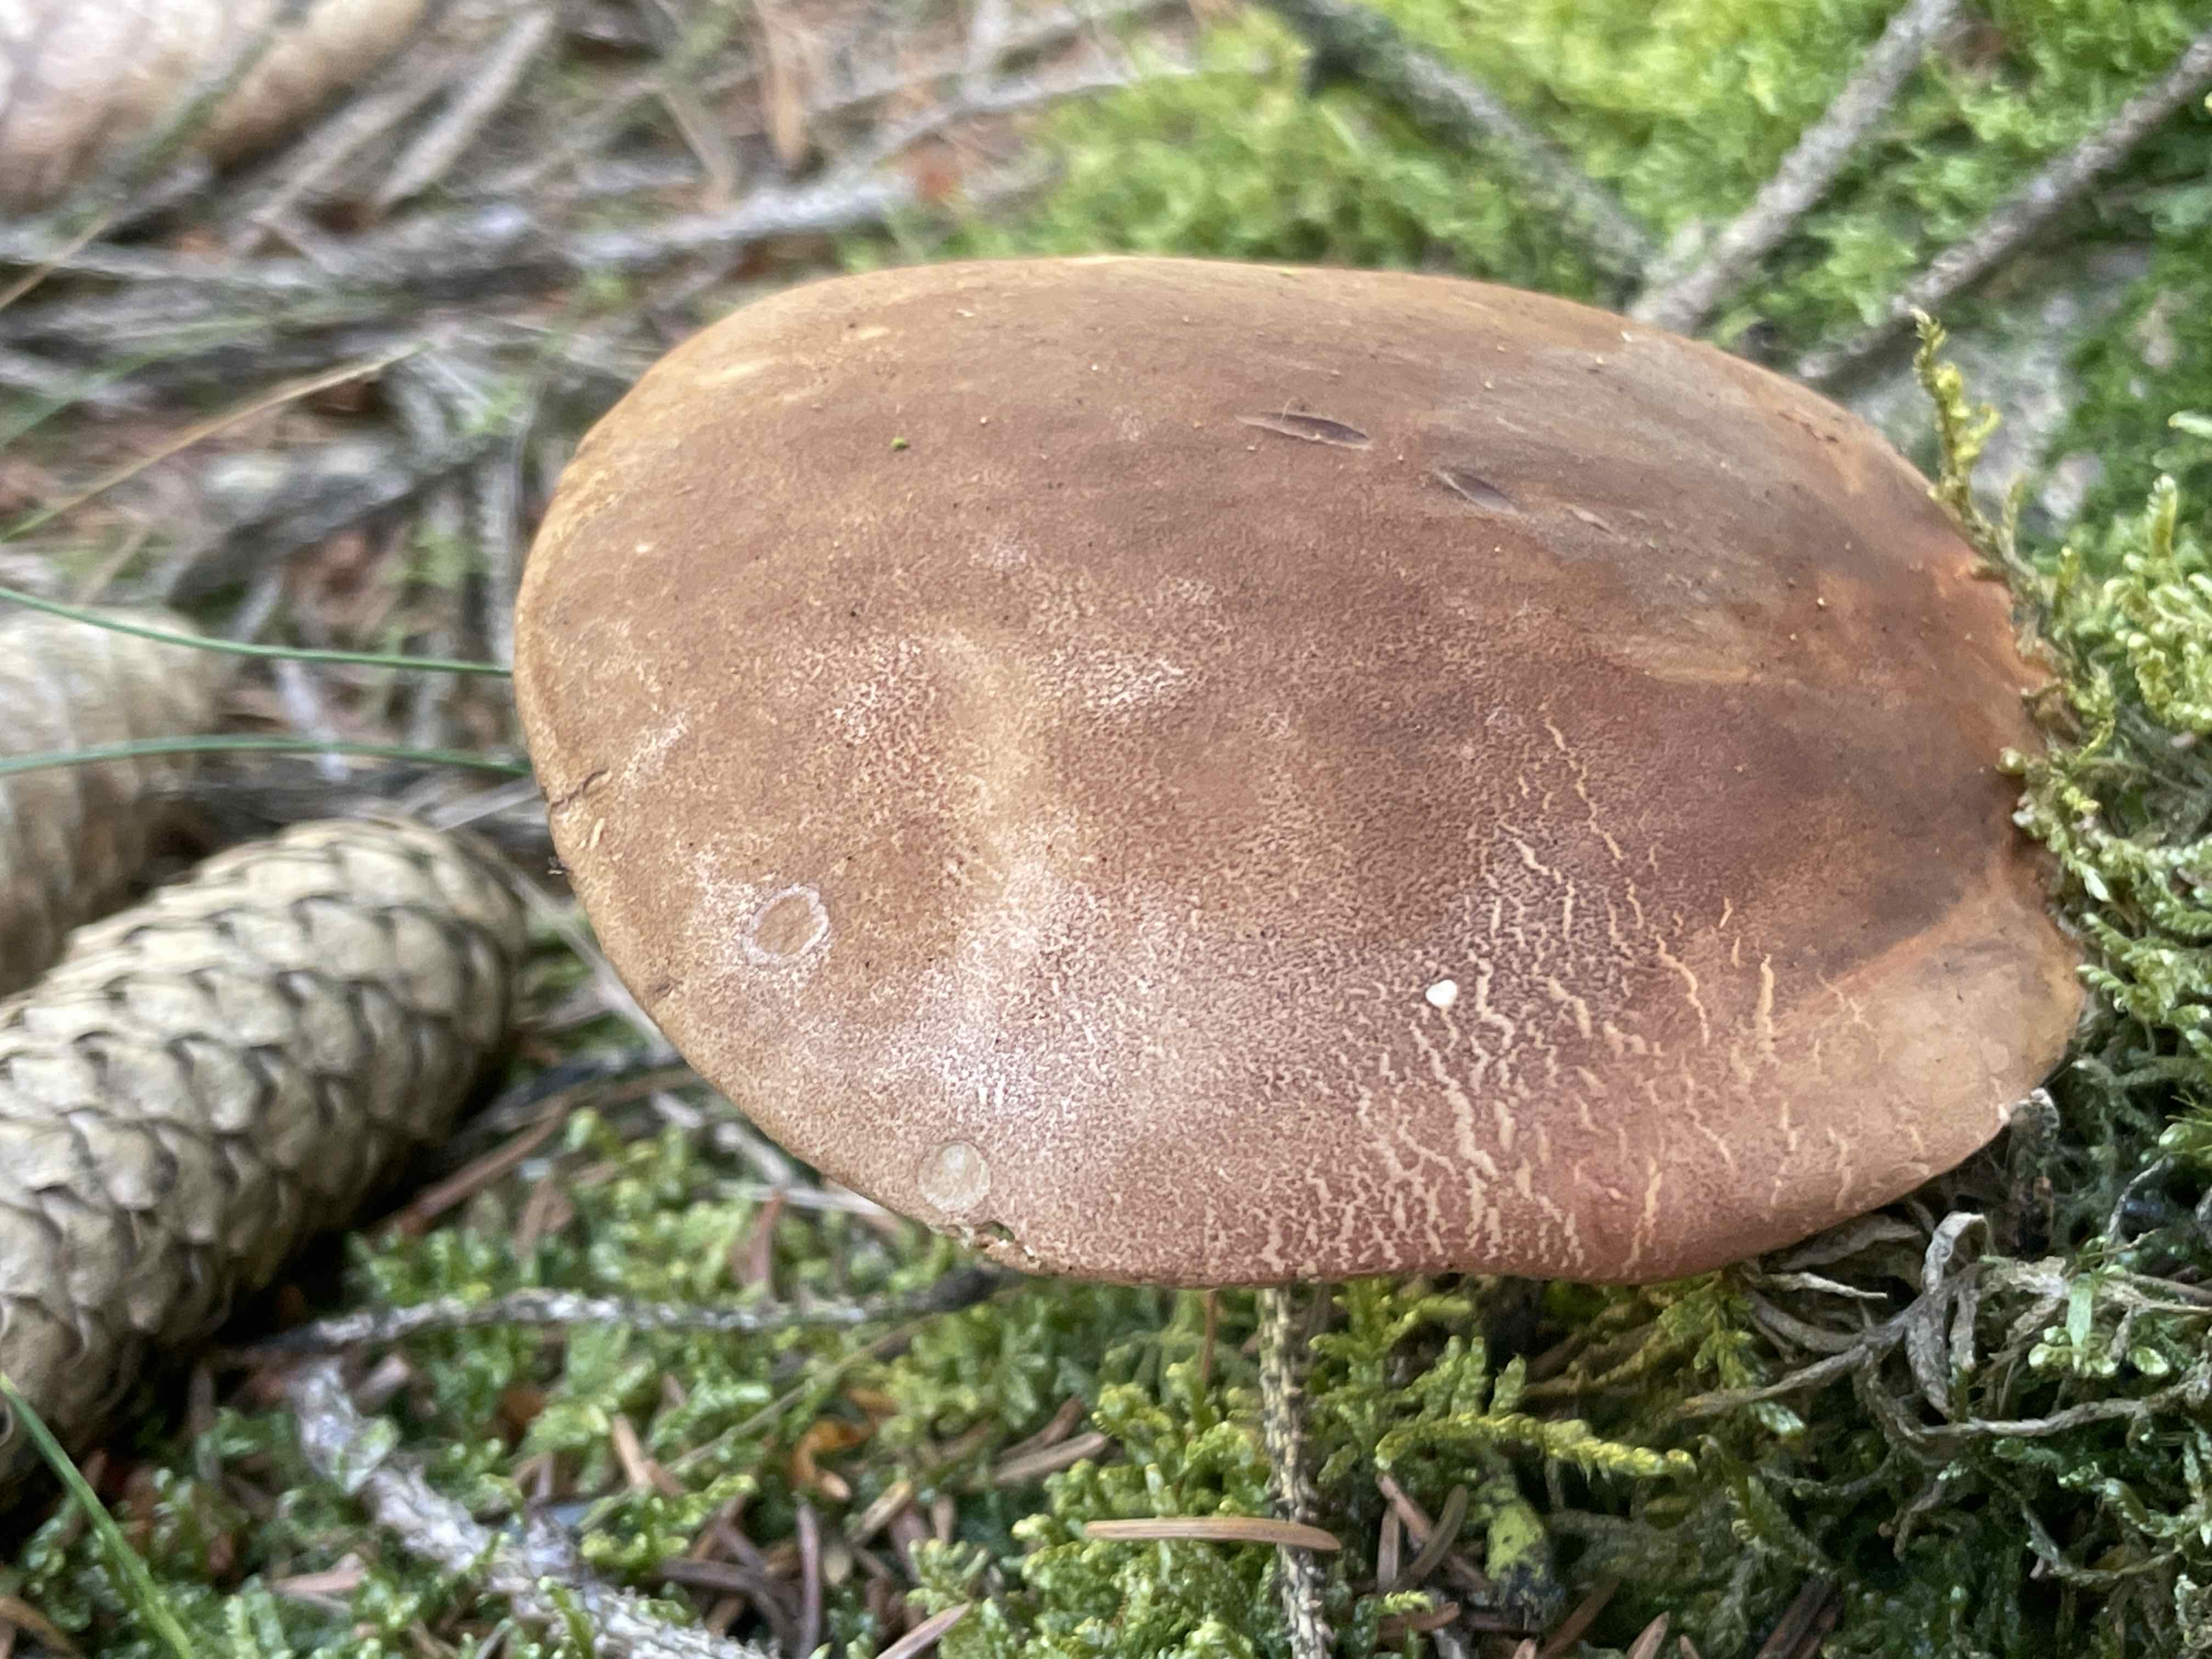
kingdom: Fungi
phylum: Basidiomycota
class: Agaricomycetes
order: Boletales
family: Tapinellaceae
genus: Tapinella
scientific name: Tapinella atrotomentosa
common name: sortfiltet viftesvamp
